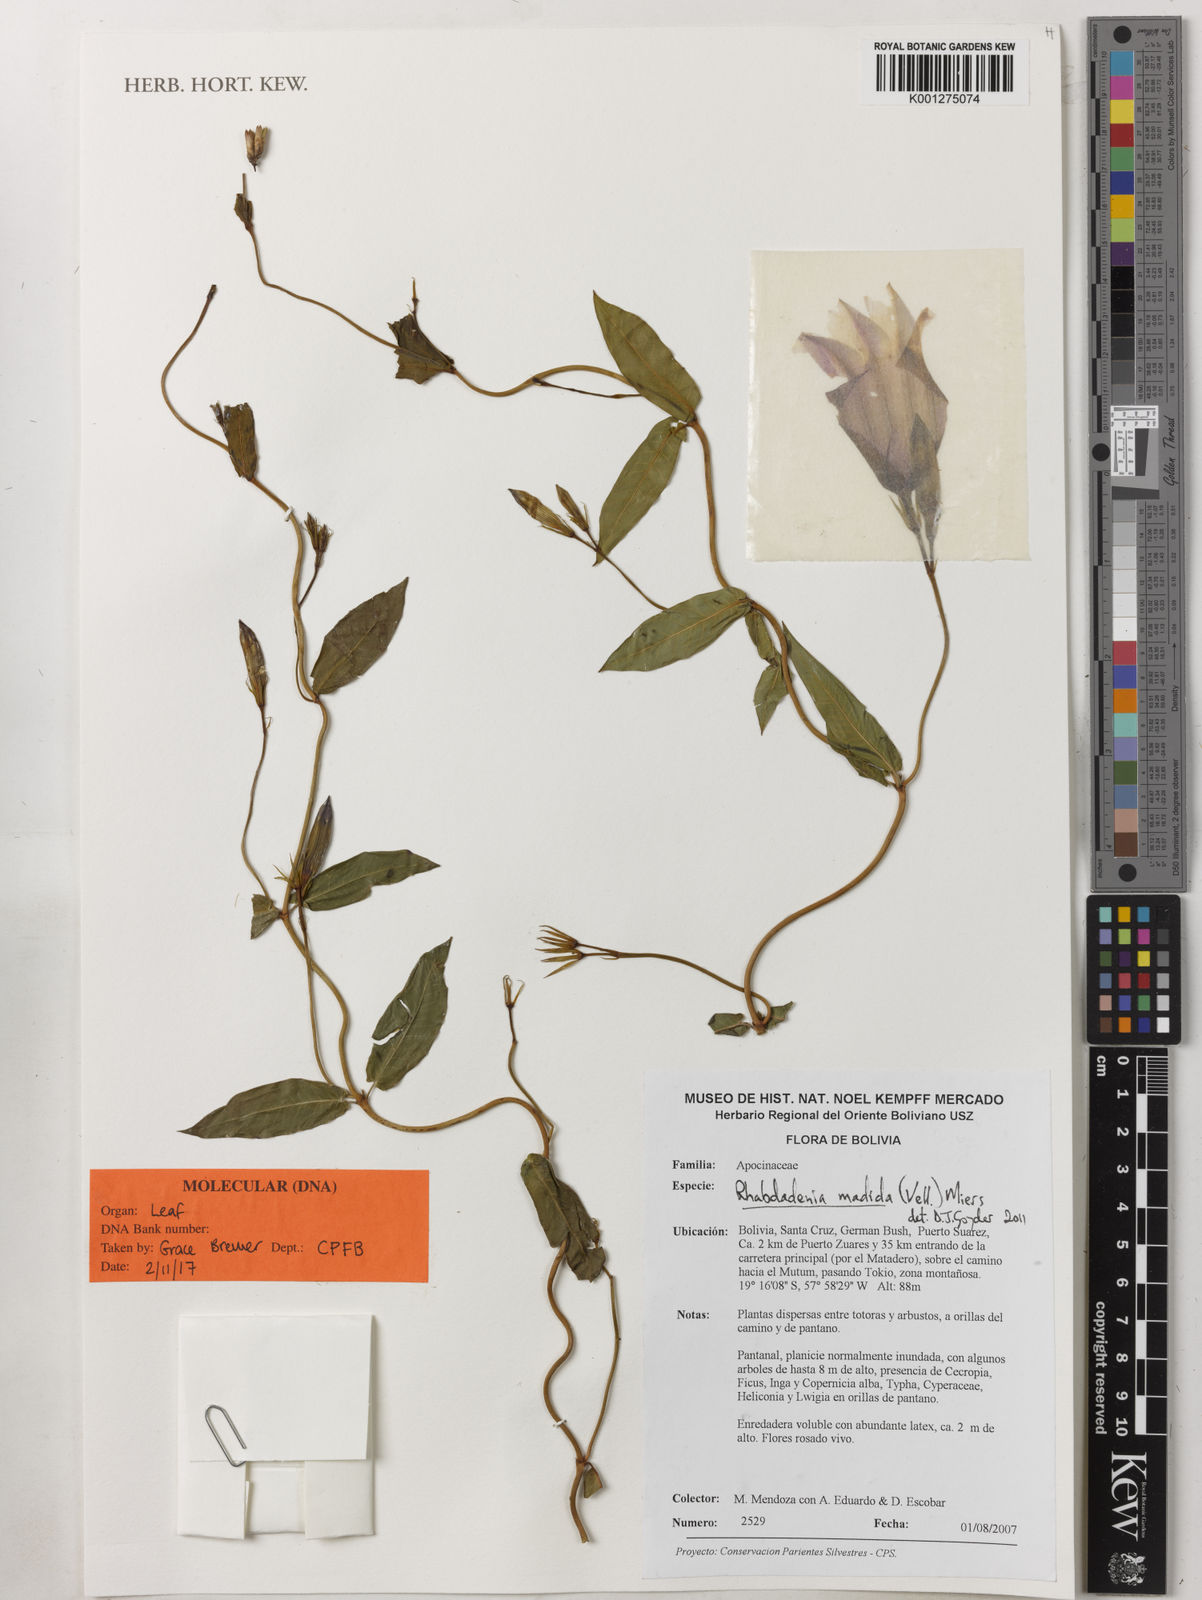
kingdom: Plantae
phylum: Tracheophyta
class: Magnoliopsida
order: Gentianales
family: Apocynaceae
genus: Rhabdadenia
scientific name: Rhabdadenia madida
